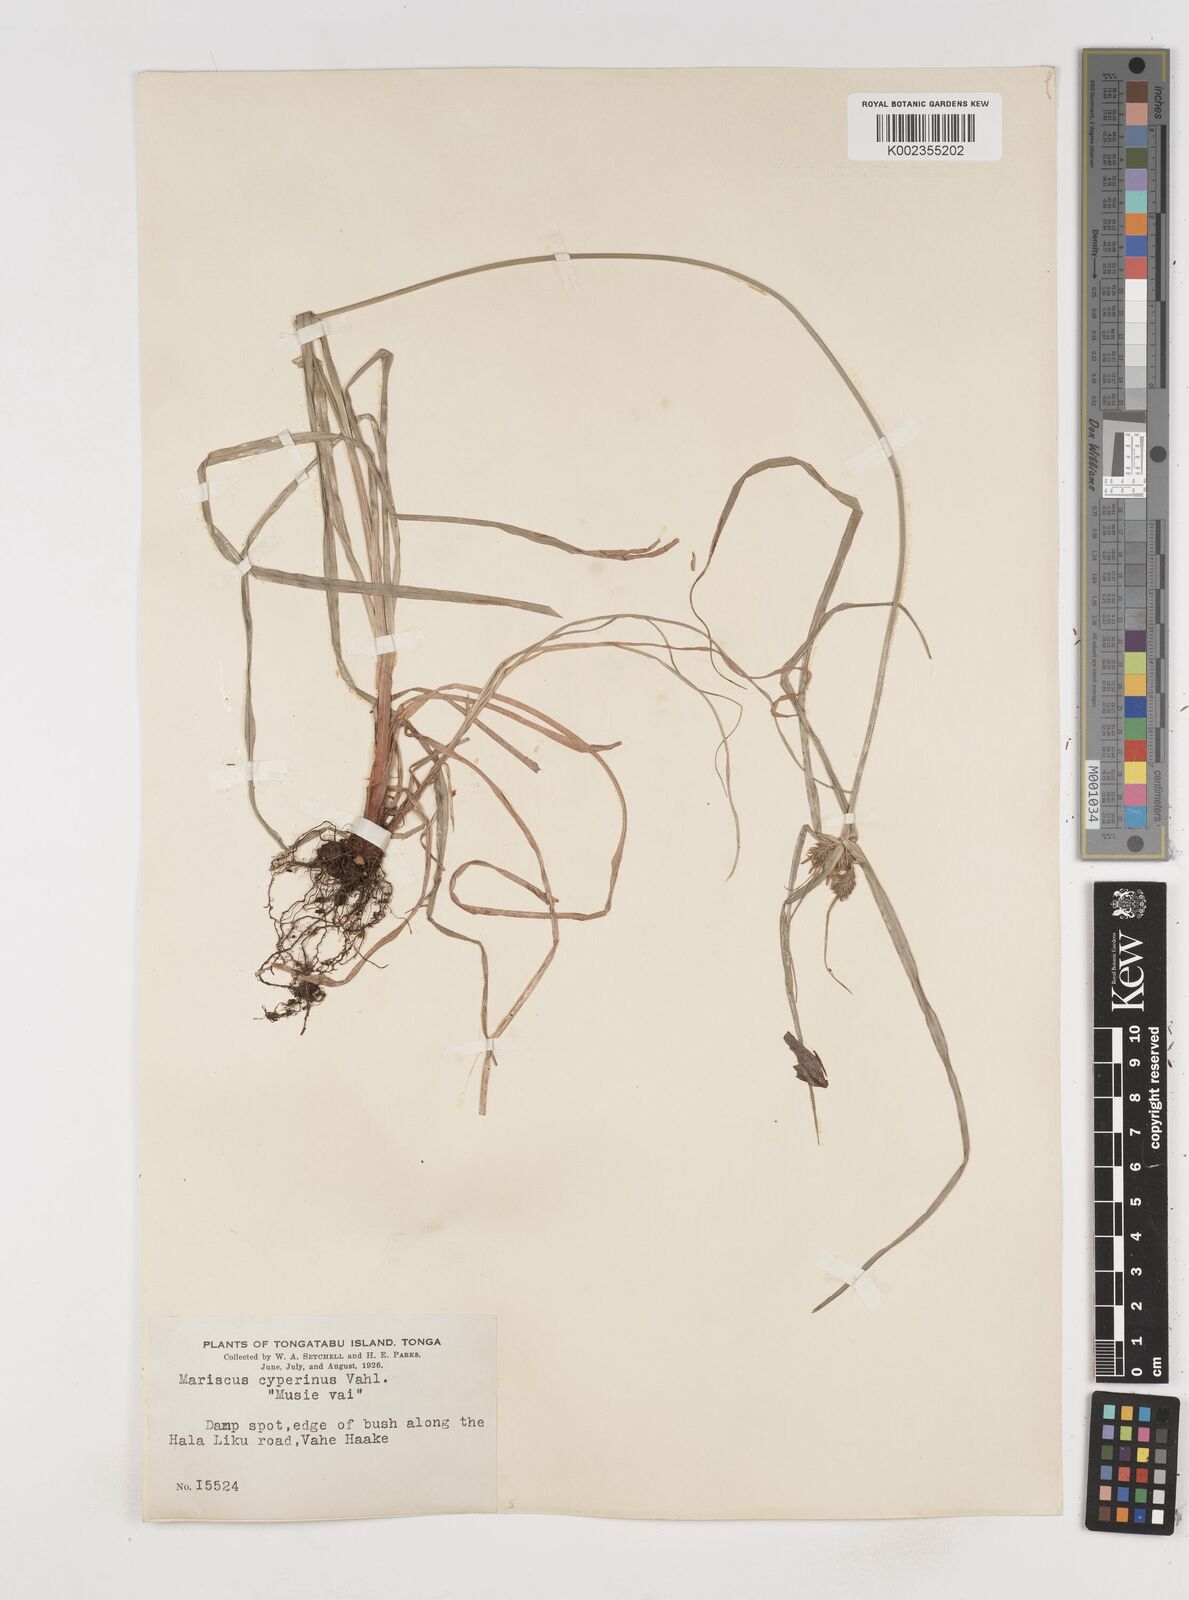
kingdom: Plantae
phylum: Tracheophyta
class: Liliopsida
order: Poales
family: Cyperaceae
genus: Cyperus
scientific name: Cyperus cyperinus
